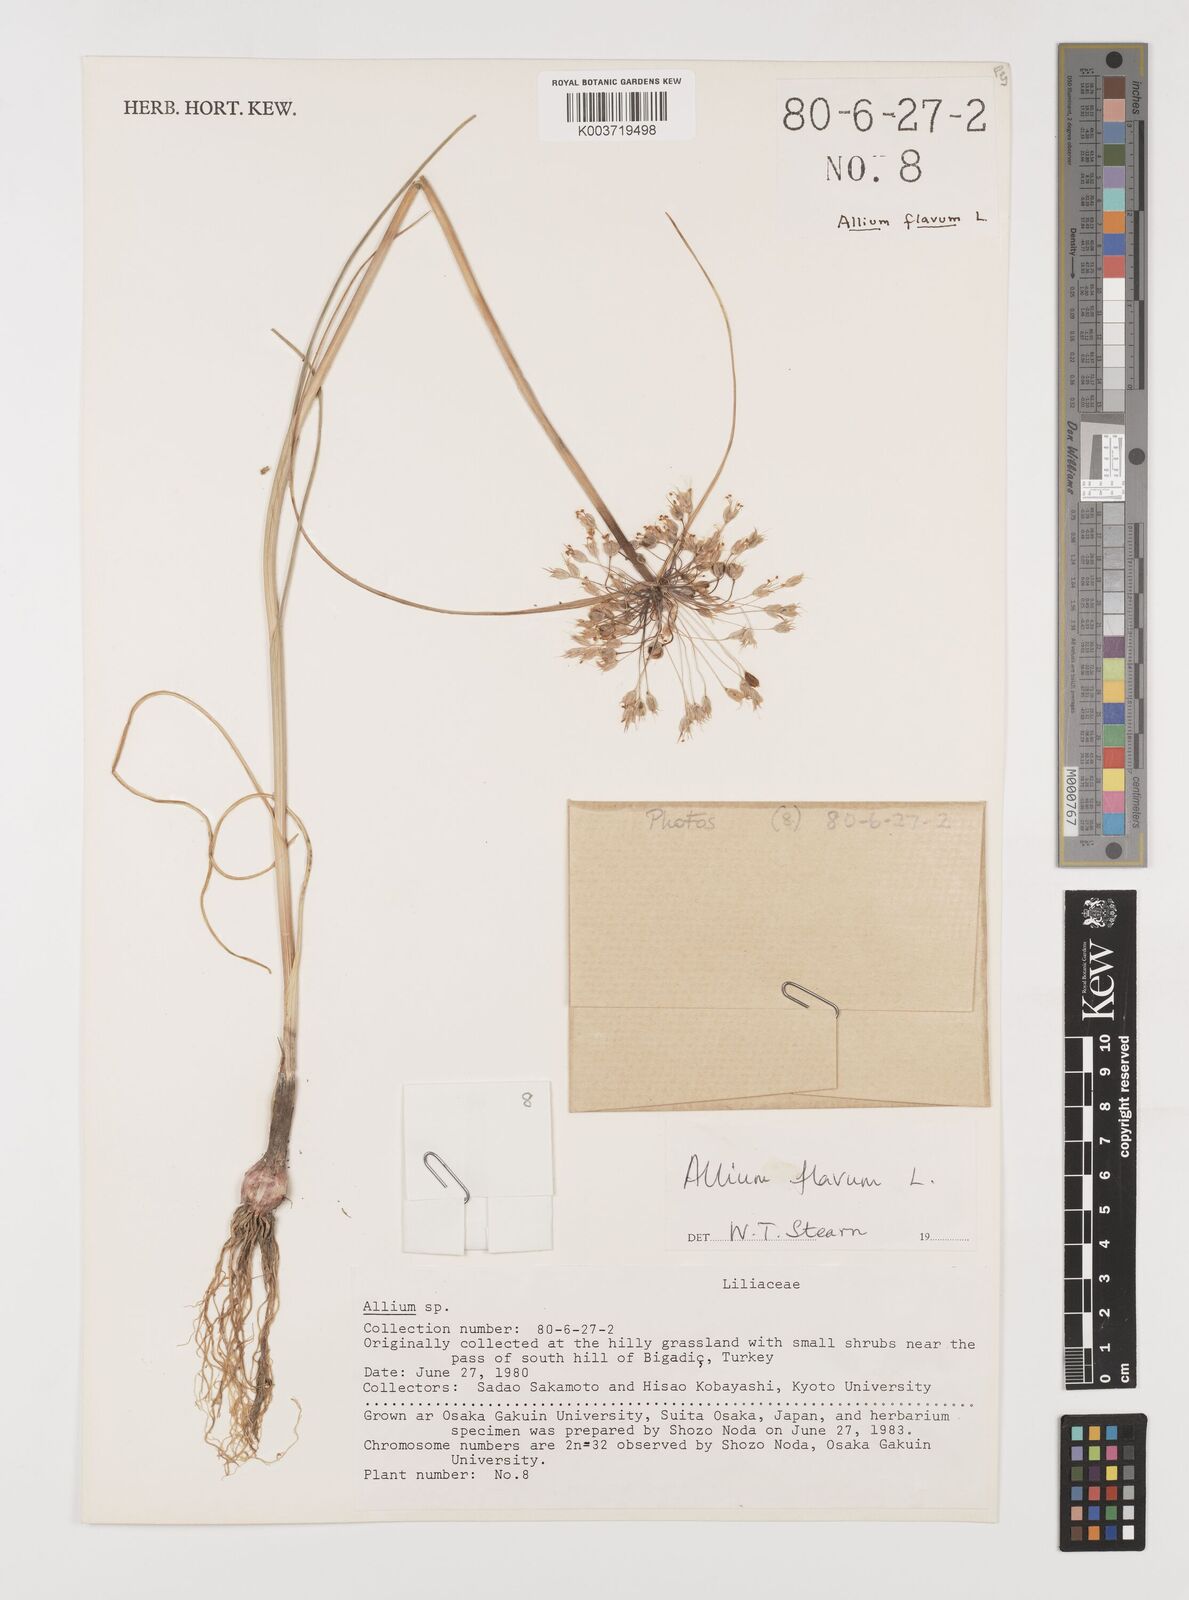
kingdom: Plantae
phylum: Tracheophyta
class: Liliopsida
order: Asparagales
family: Amaryllidaceae
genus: Allium
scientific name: Allium flavum
